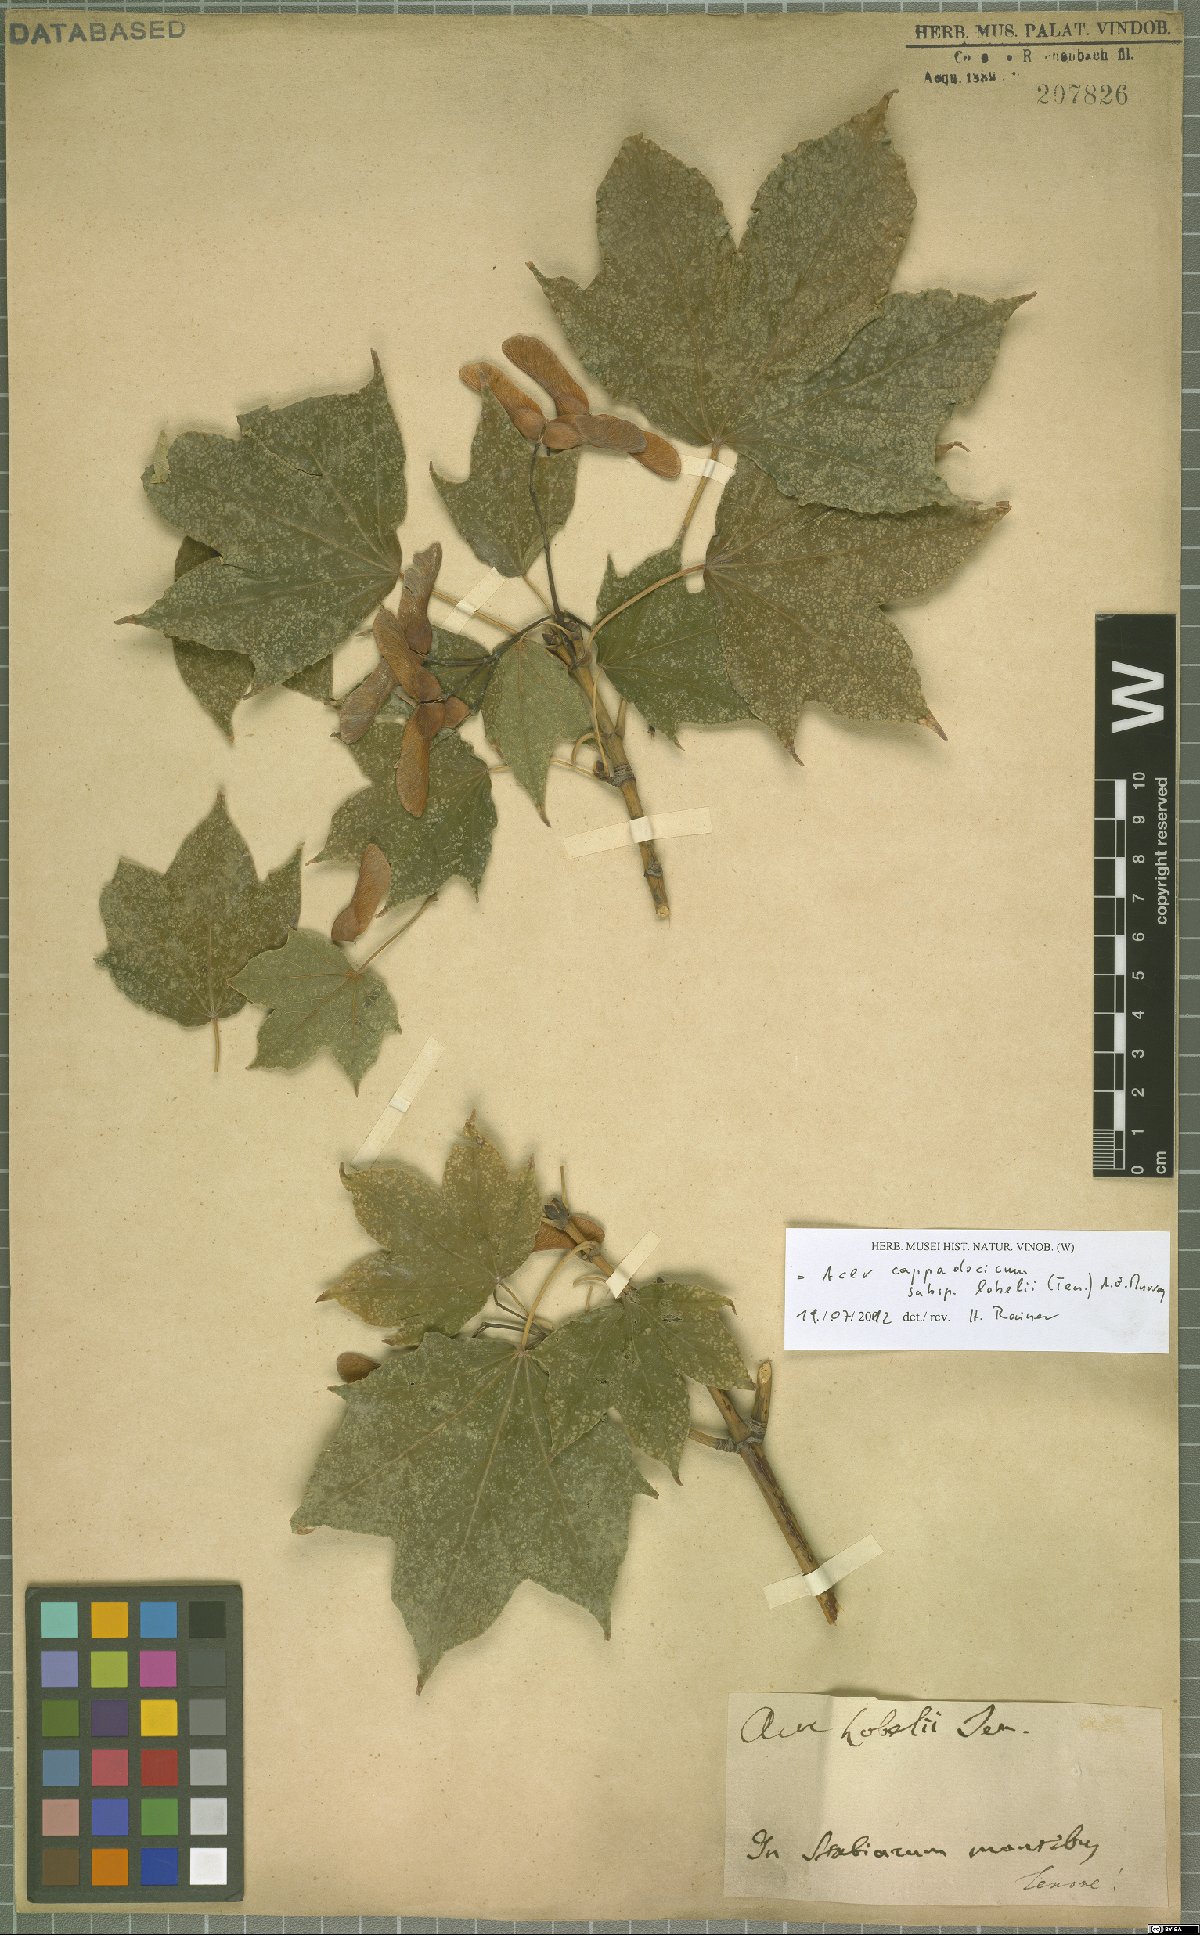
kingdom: Plantae
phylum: Tracheophyta
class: Magnoliopsida
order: Sapindales
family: Sapindaceae
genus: Acer
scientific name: Acer lobelii
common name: Lobel's maple
